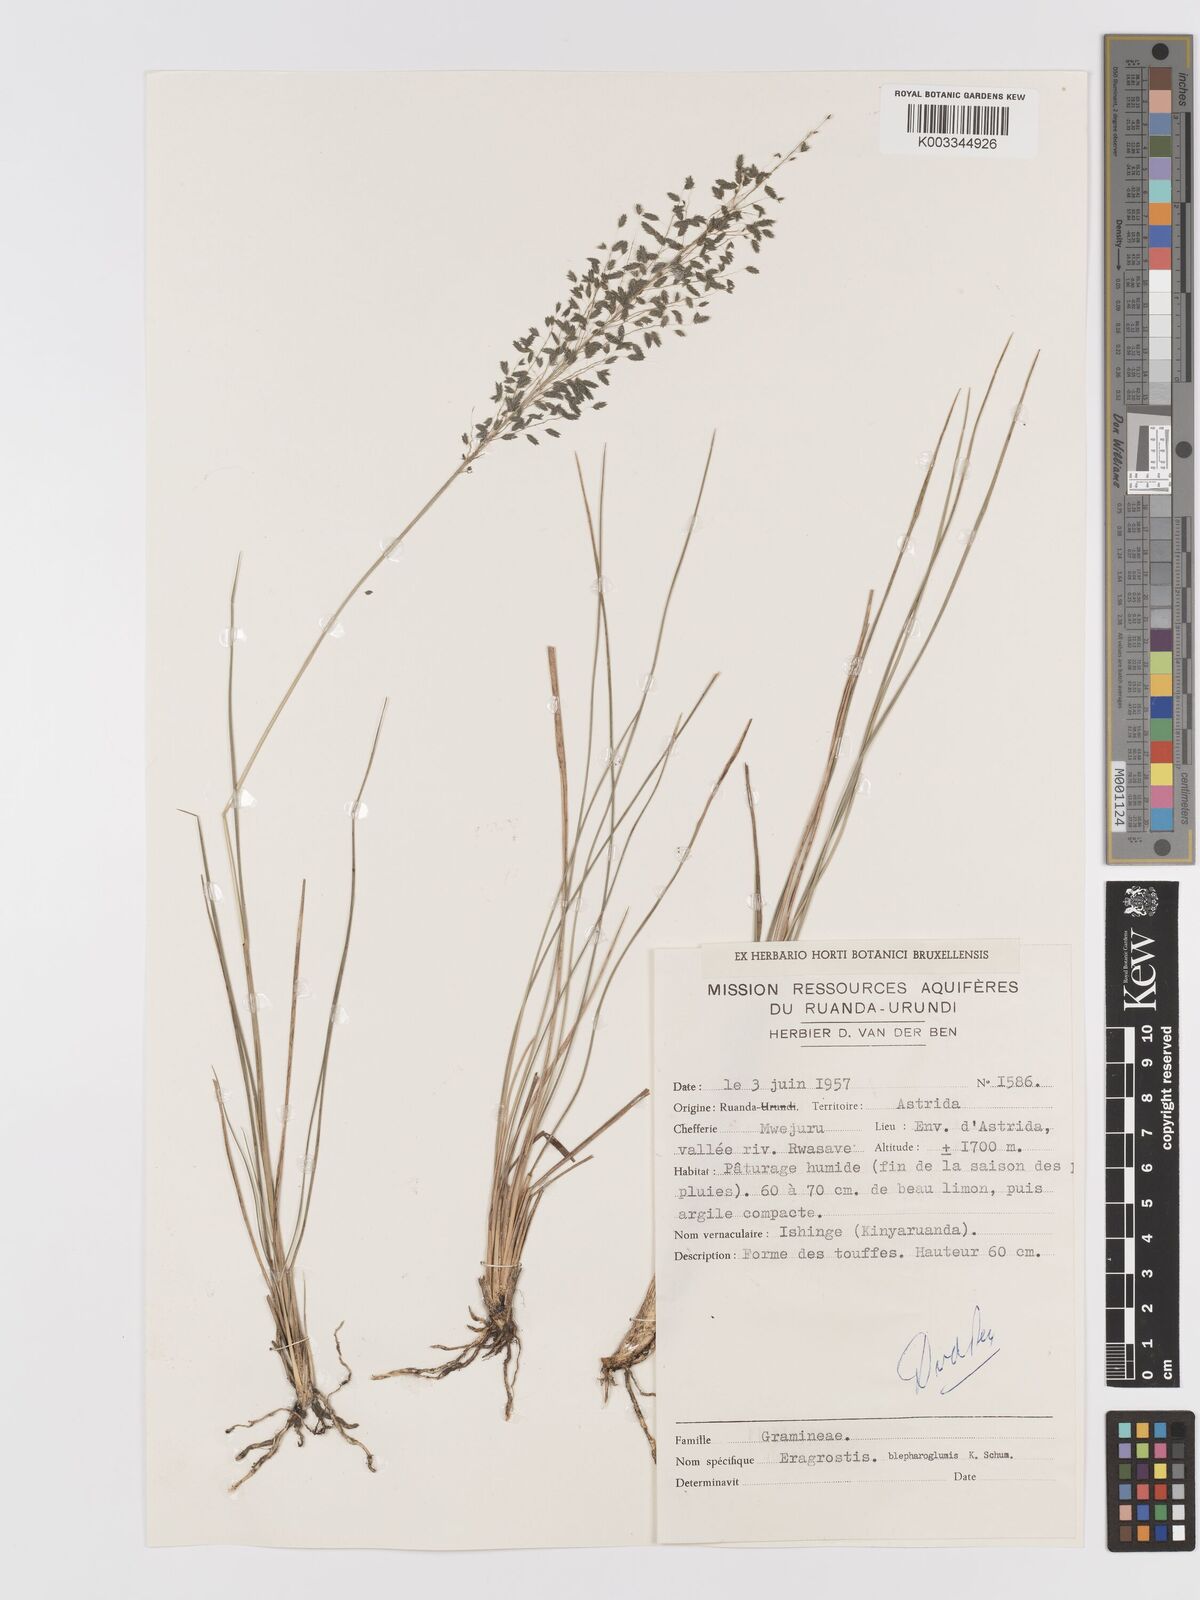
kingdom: Plantae
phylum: Tracheophyta
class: Liliopsida
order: Poales
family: Poaceae
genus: Eragrostis
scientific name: Eragrostis olivacea
